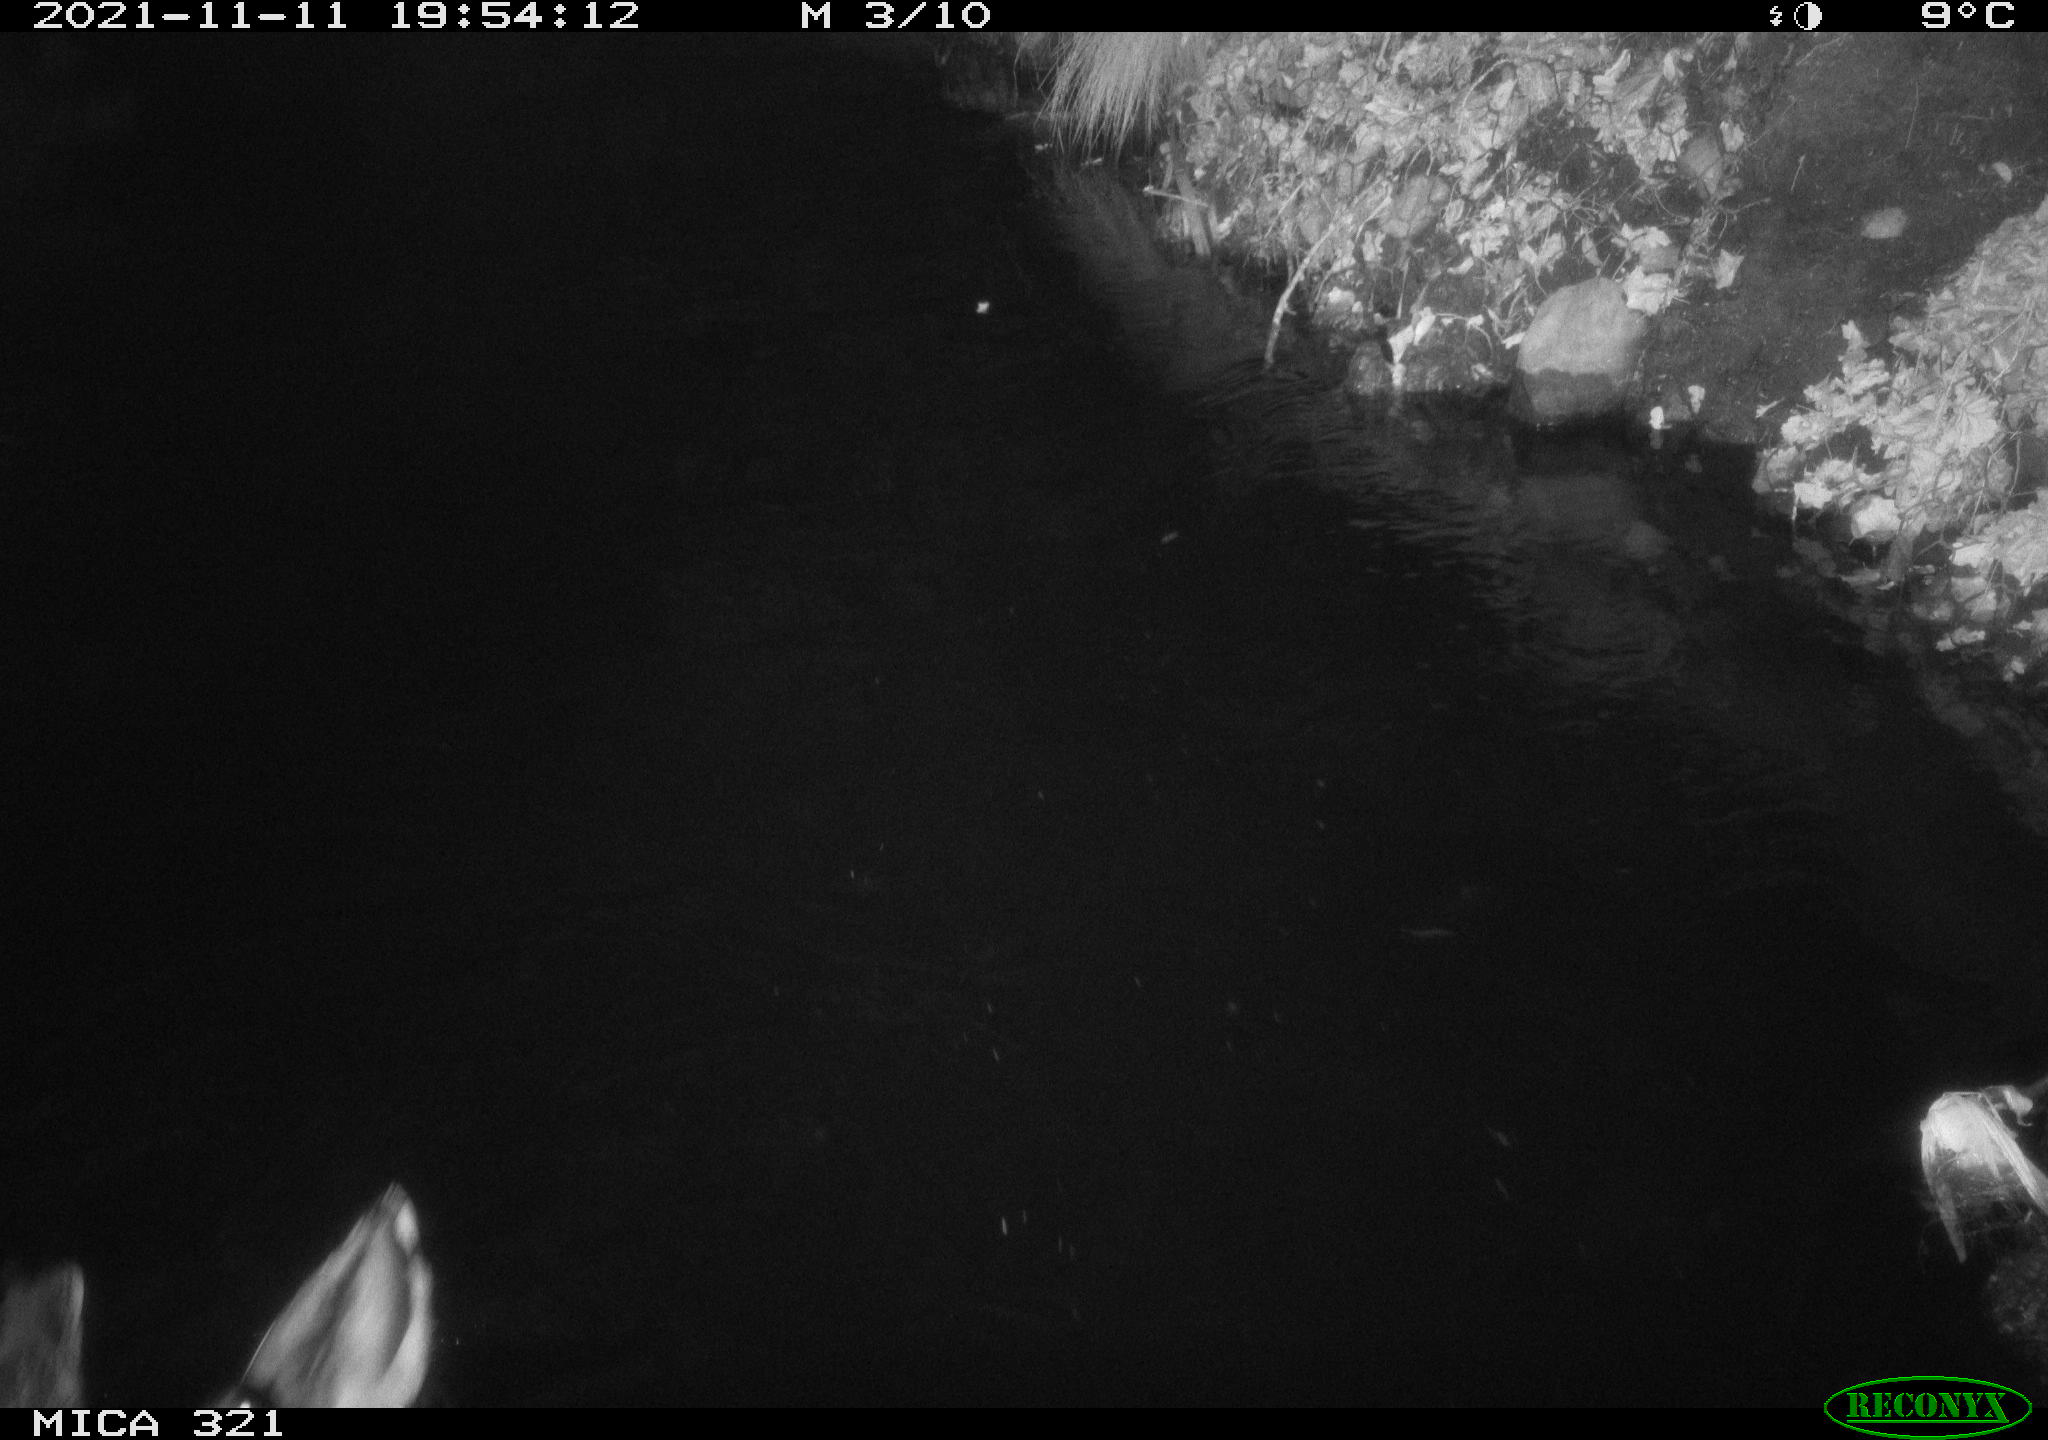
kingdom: Animalia
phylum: Chordata
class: Aves
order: Anseriformes
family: Anatidae
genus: Anas
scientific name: Anas platyrhynchos
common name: Mallard
